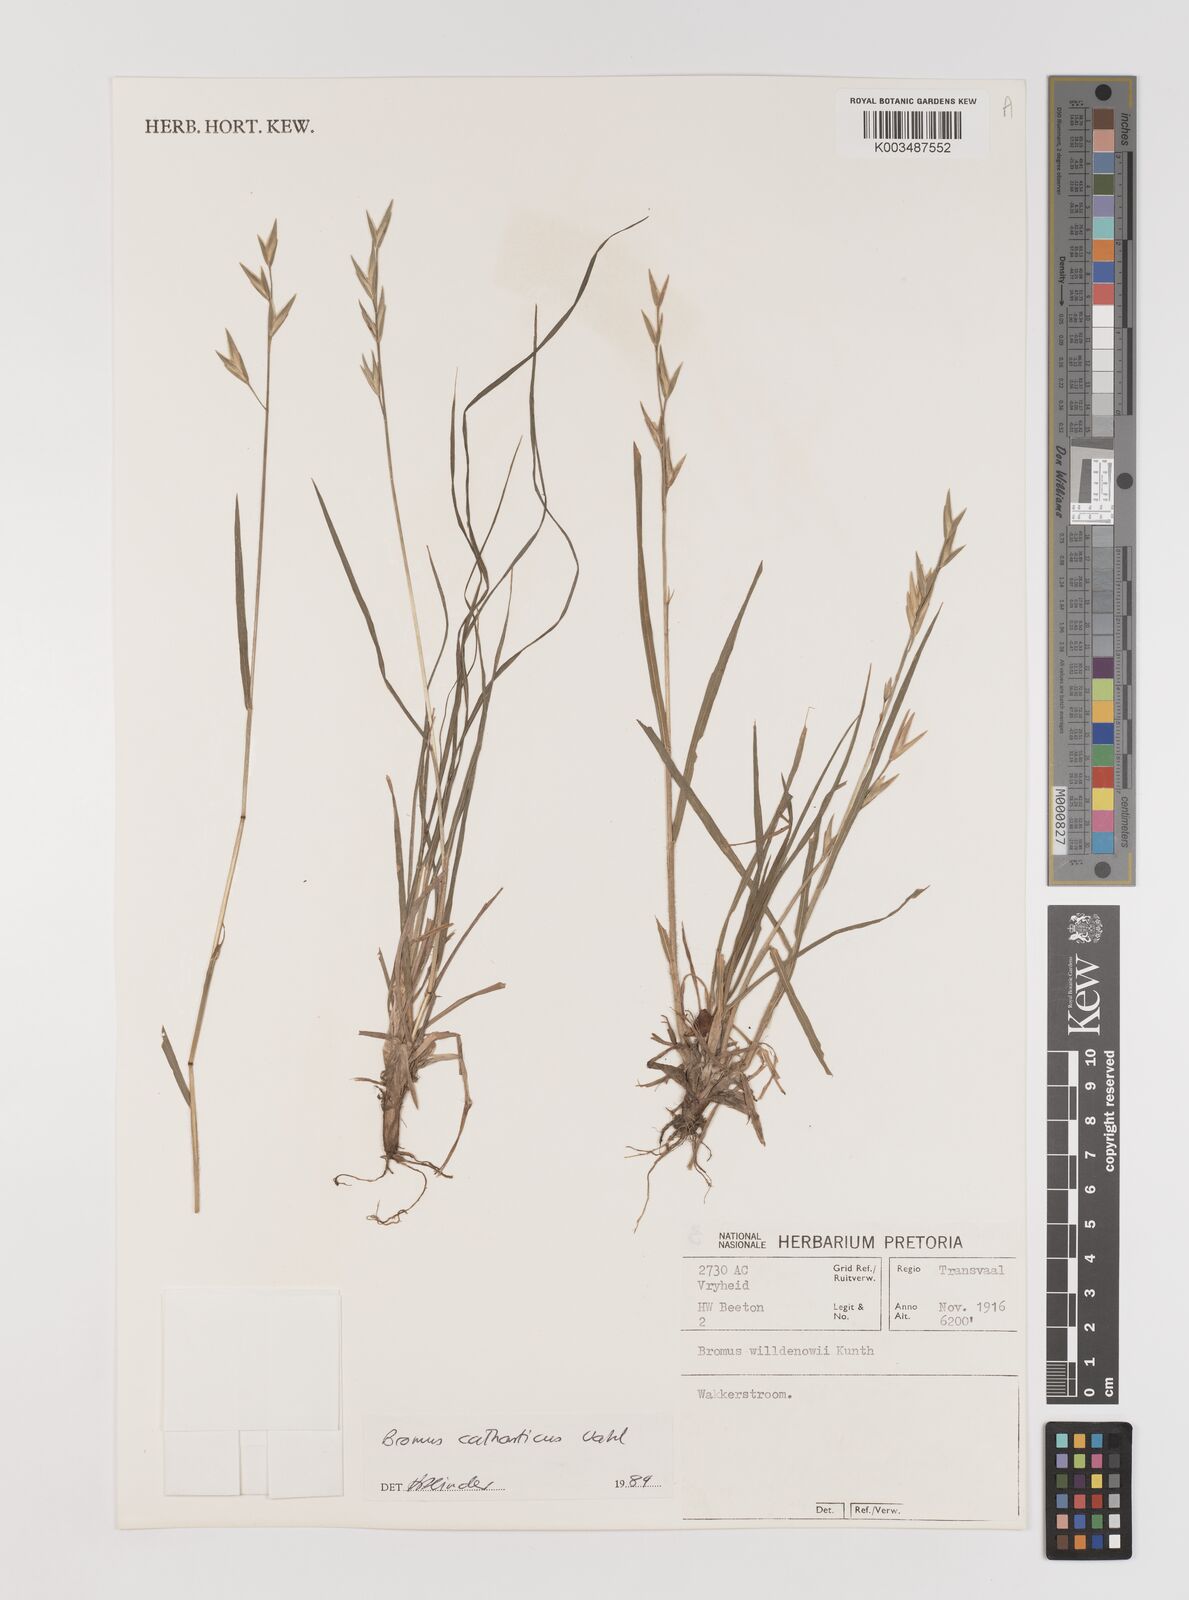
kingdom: Plantae
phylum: Tracheophyta
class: Liliopsida
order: Poales
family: Poaceae
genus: Bromus
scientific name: Bromus catharticus
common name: Rescuegrass
